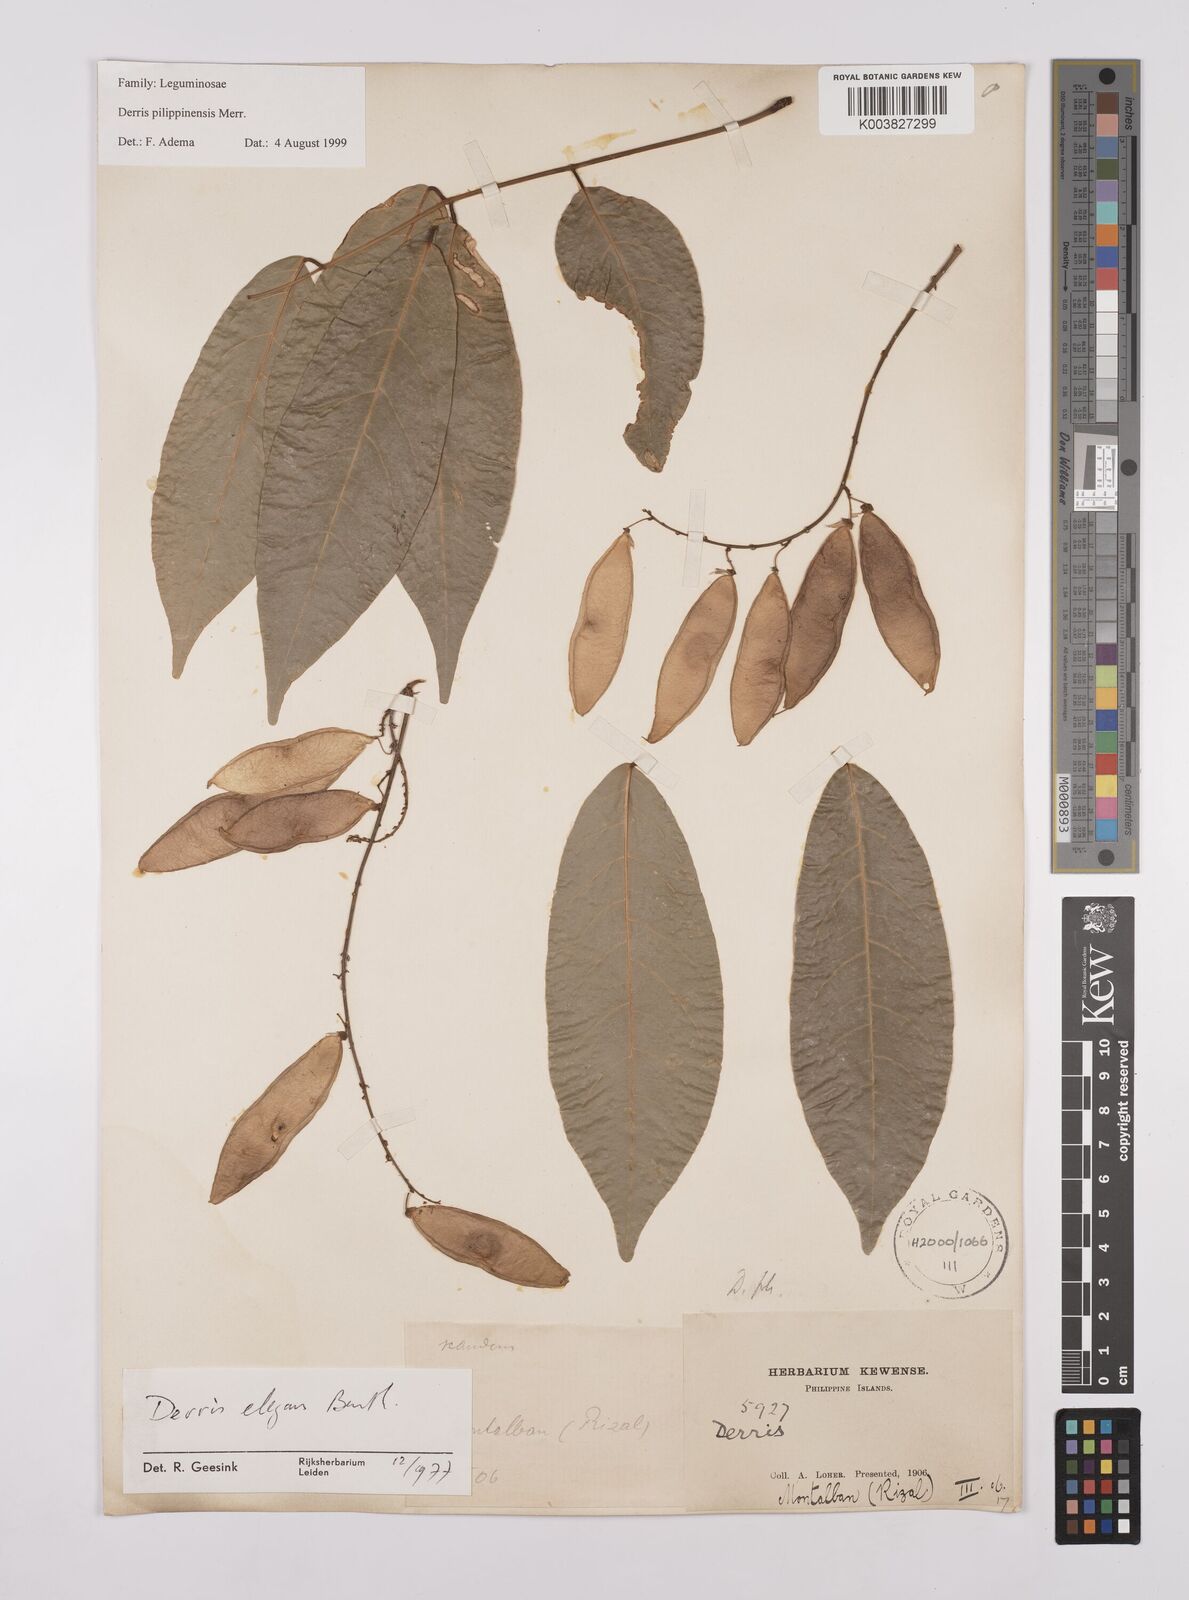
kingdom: Plantae
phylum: Tracheophyta
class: Magnoliopsida
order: Fabales
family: Fabaceae
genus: Brachypterum
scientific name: Brachypterum philippinense
